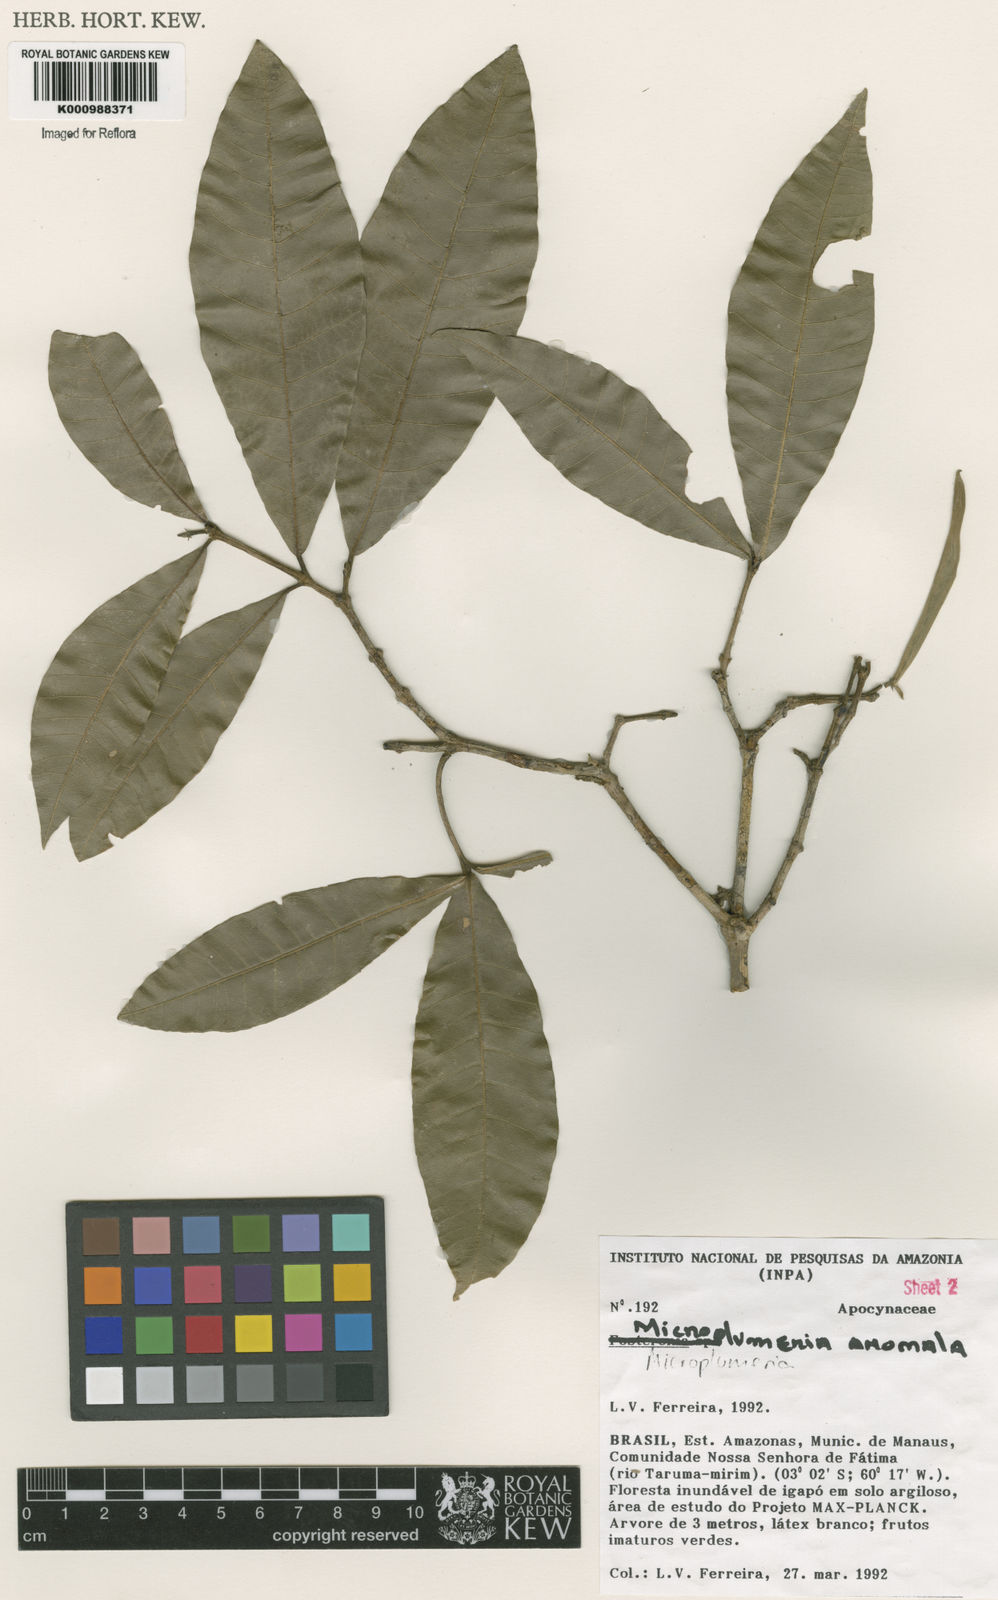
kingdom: Plantae
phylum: Tracheophyta
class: Magnoliopsida
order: Gentianales
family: Apocynaceae
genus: Microplumeria
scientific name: Microplumeria
